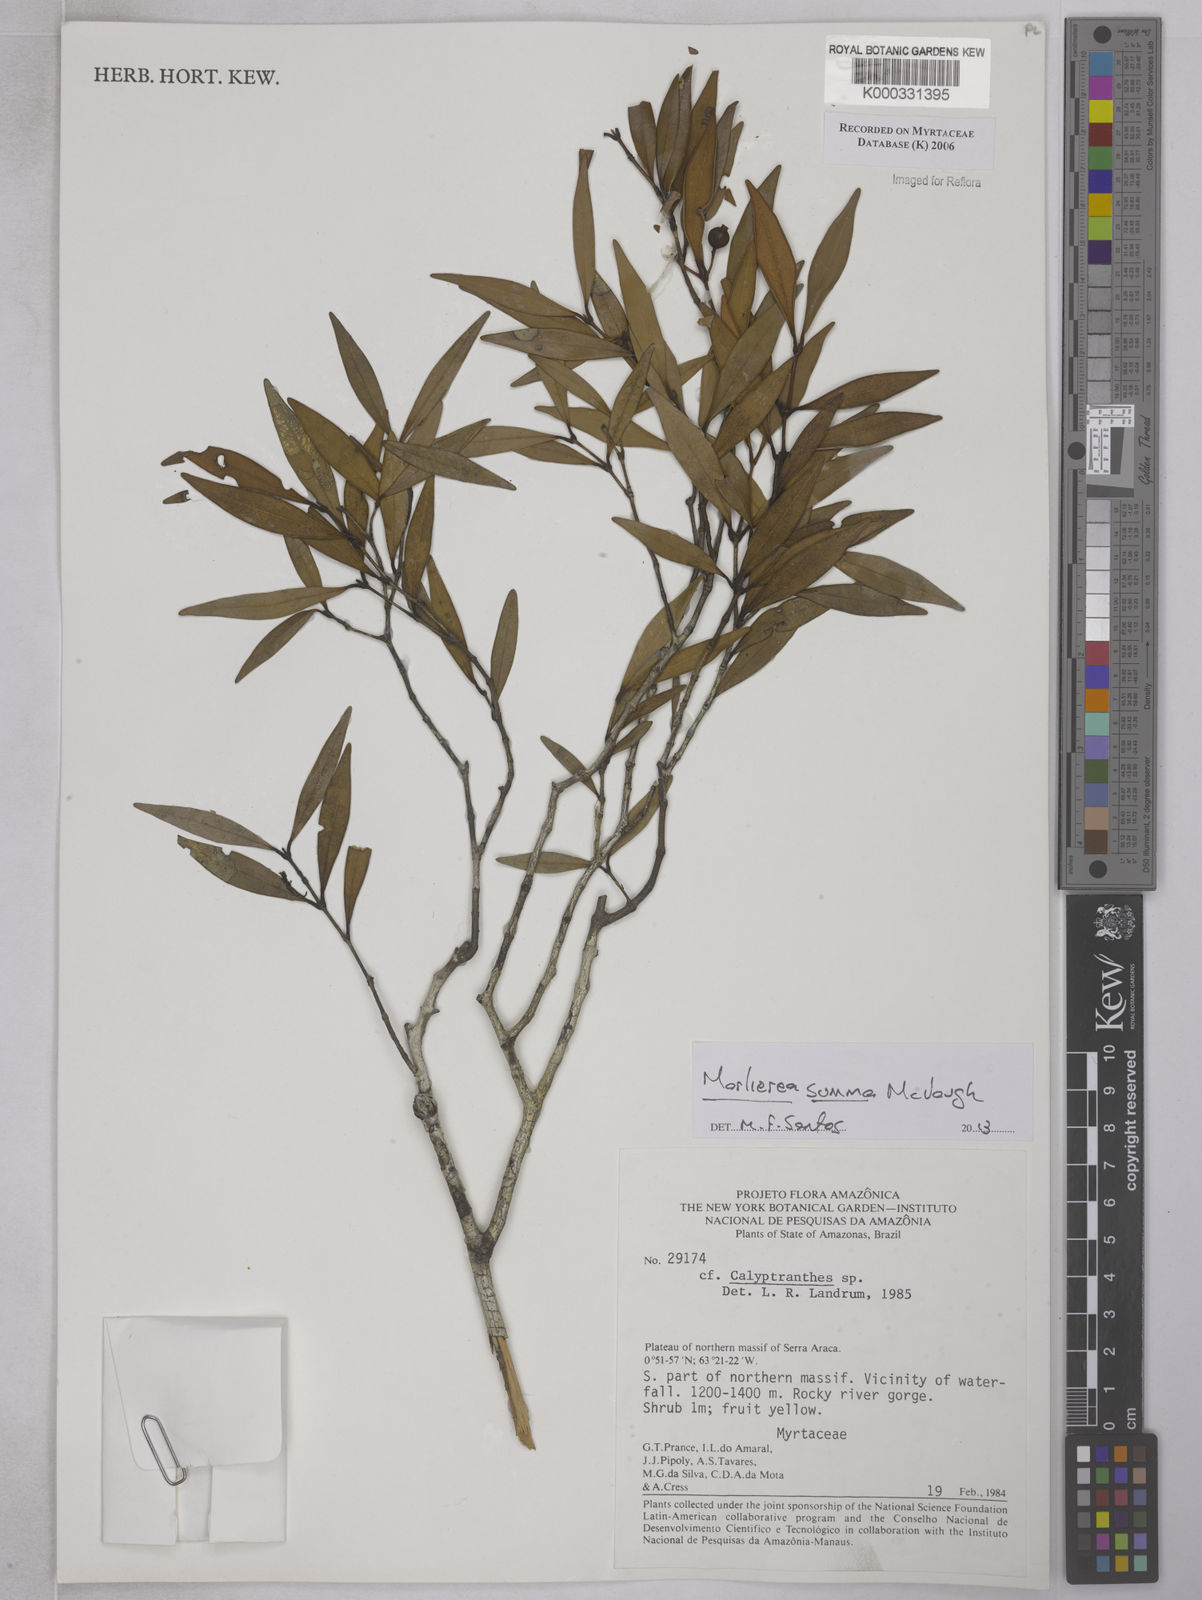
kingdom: Plantae
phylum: Tracheophyta
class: Magnoliopsida
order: Myrtales
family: Myrtaceae
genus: Calyptranthes
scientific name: Calyptranthes
